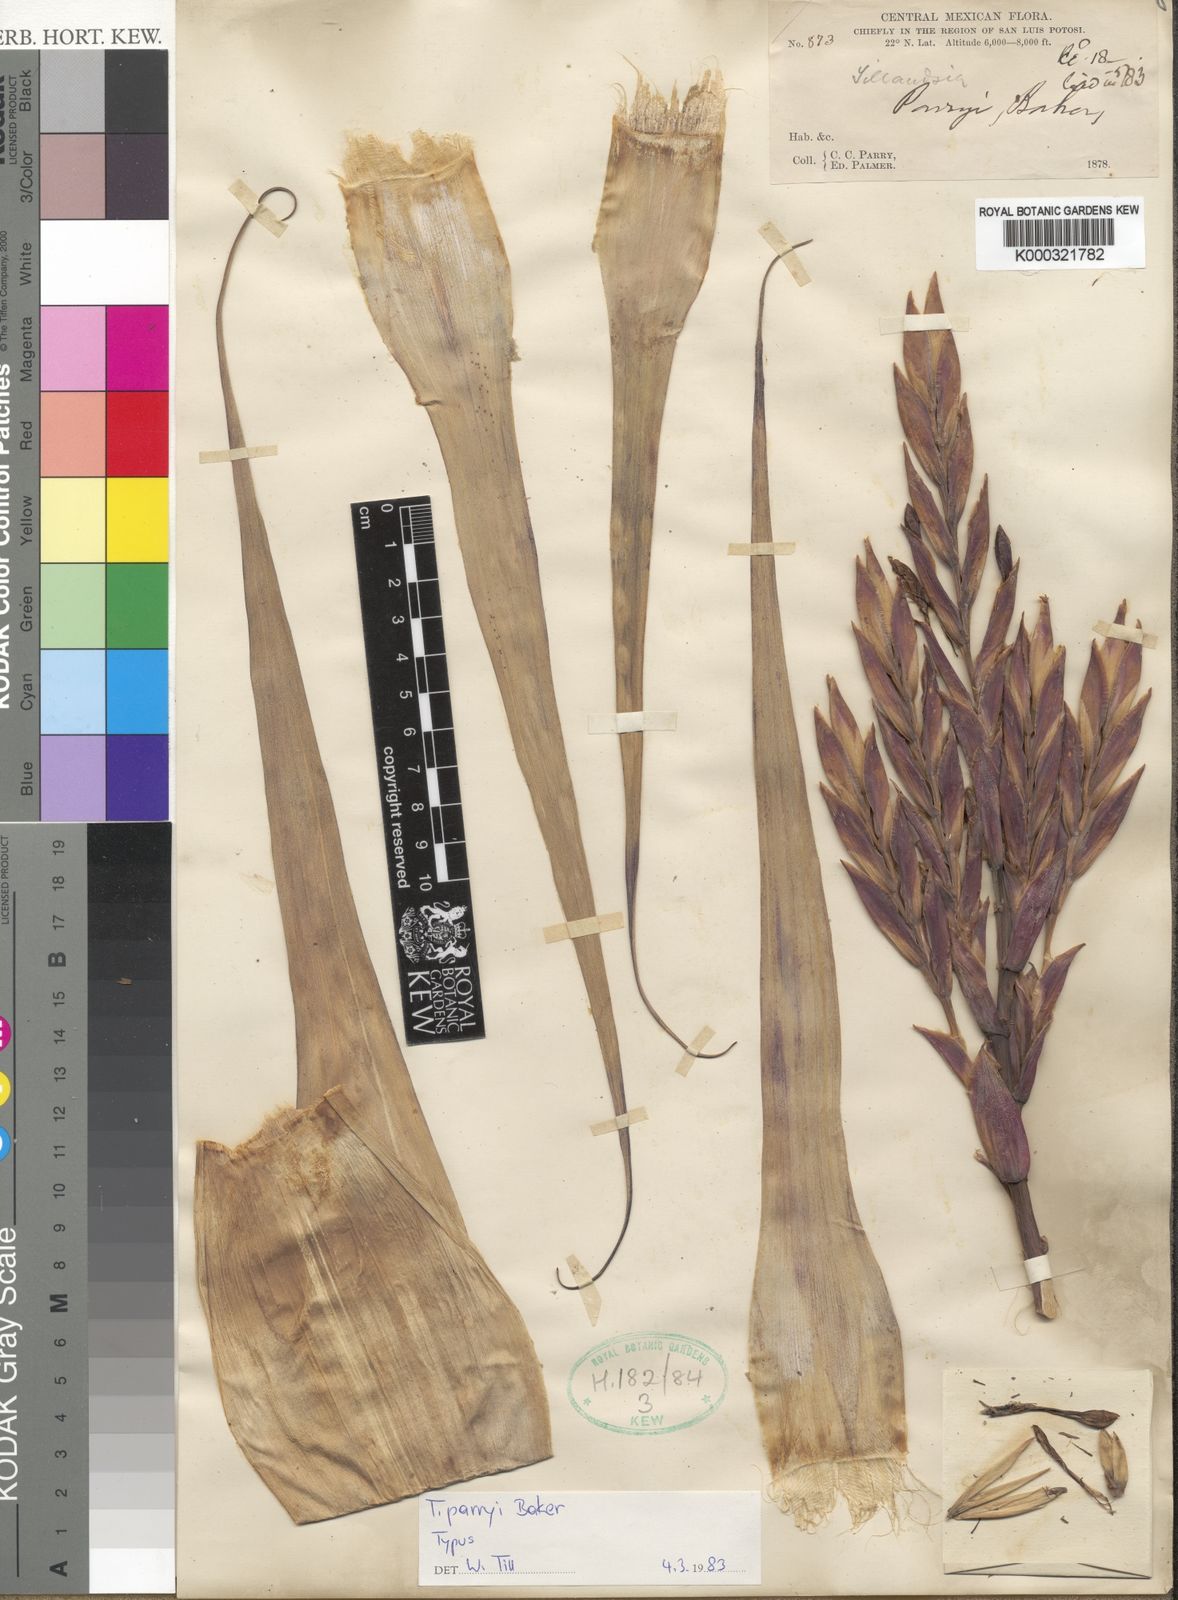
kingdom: Plantae
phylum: Tracheophyta
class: Liliopsida
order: Poales
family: Bromeliaceae
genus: Tillandsia
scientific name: Tillandsia parryi
